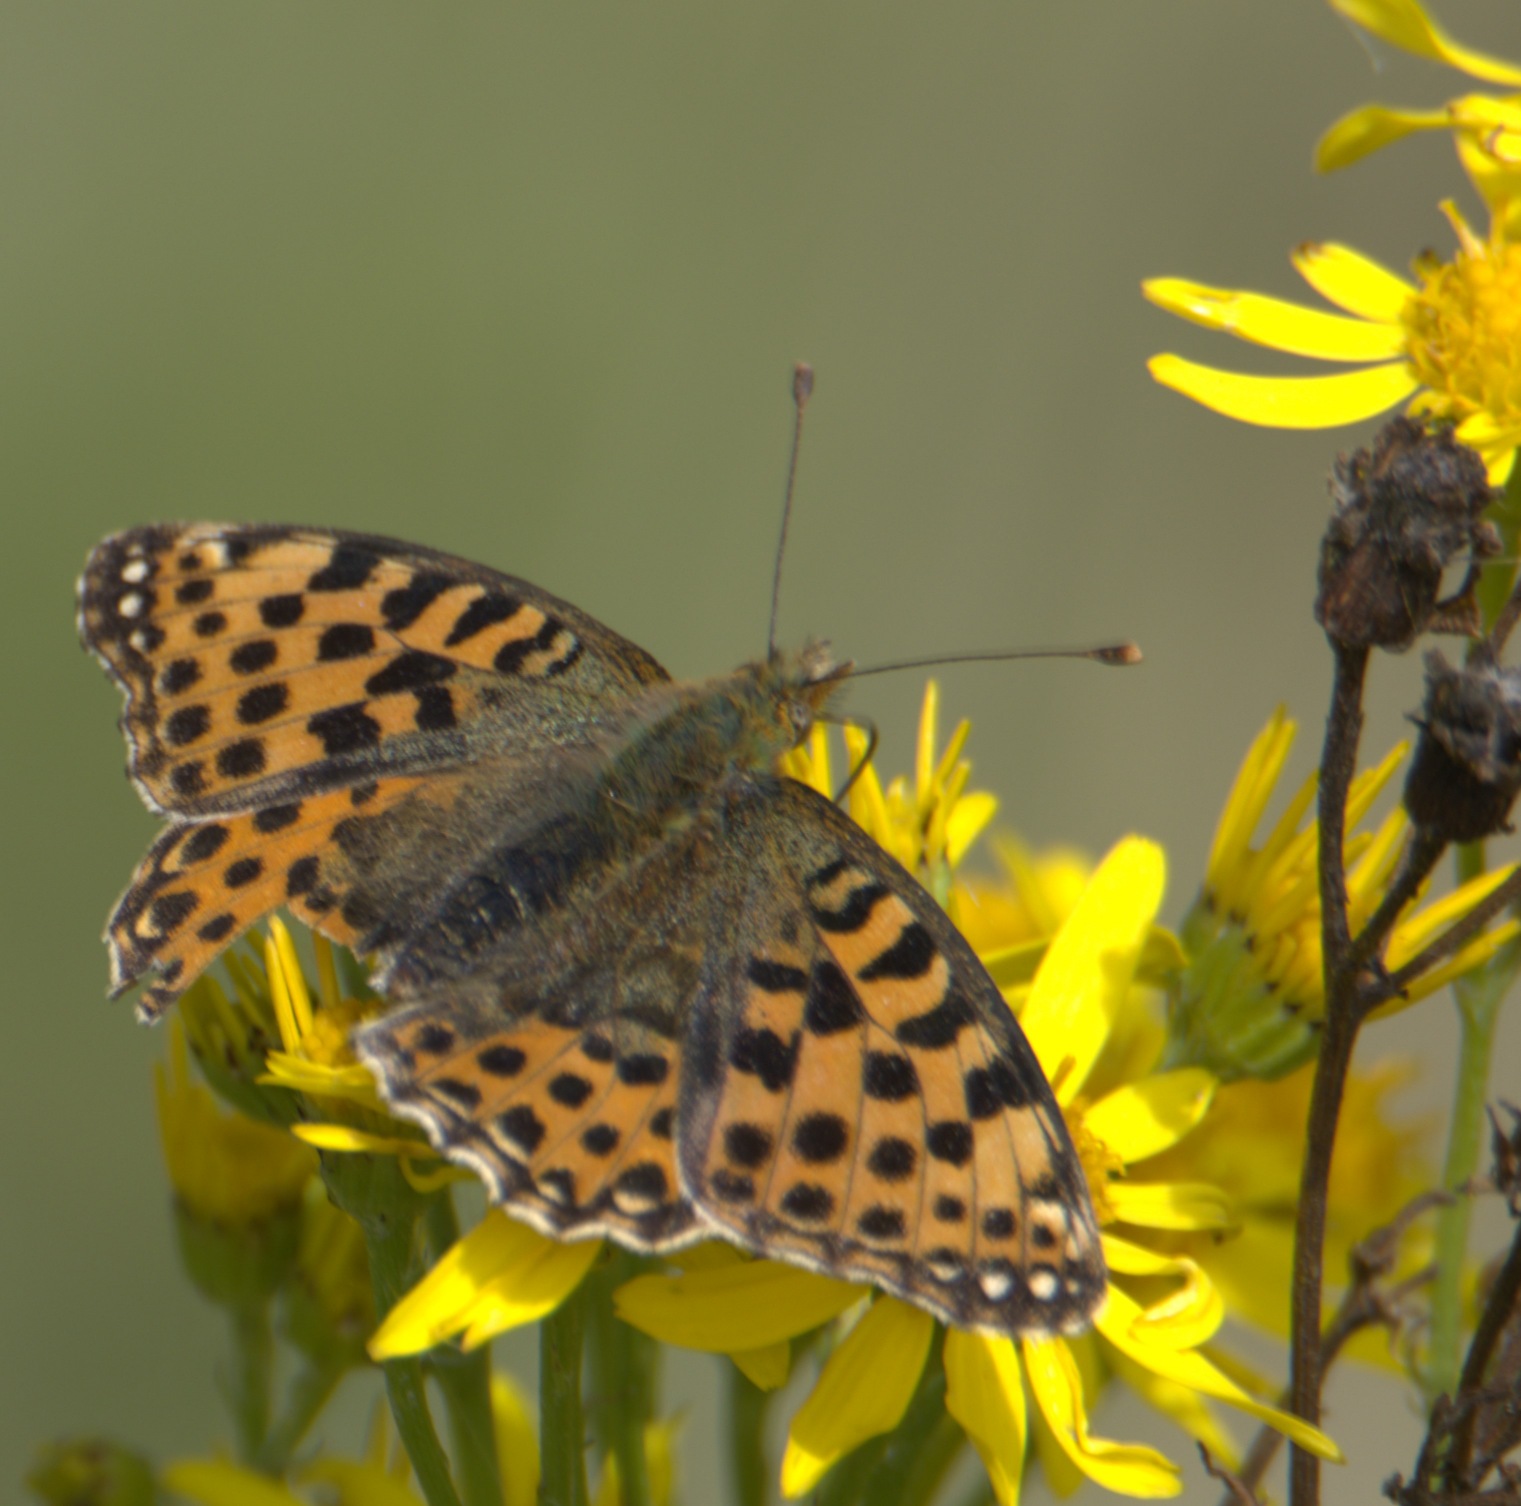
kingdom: Animalia
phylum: Arthropoda
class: Insecta
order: Lepidoptera
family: Nymphalidae
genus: Issoria
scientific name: Issoria lathonia
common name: Storplettet perlemorsommerfugl
